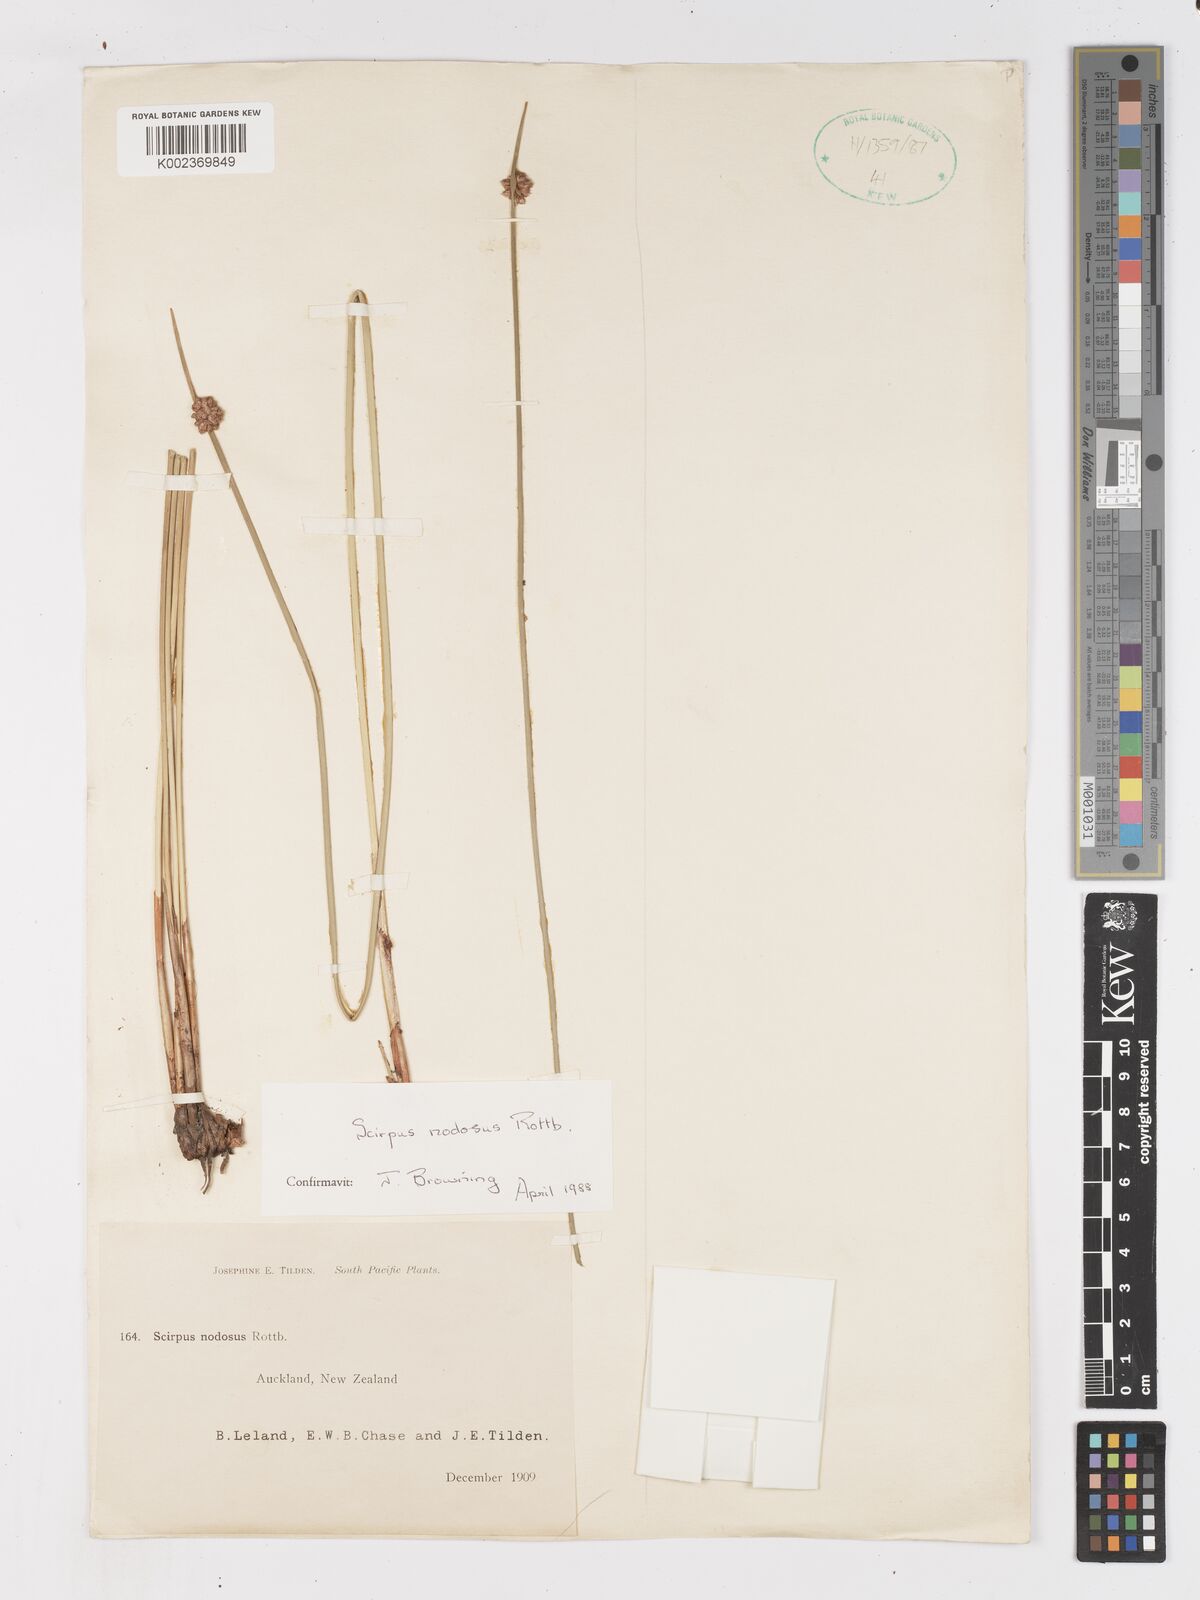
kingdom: Plantae
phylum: Tracheophyta
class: Liliopsida
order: Poales
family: Cyperaceae
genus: Ficinia
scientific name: Ficinia nodosa
